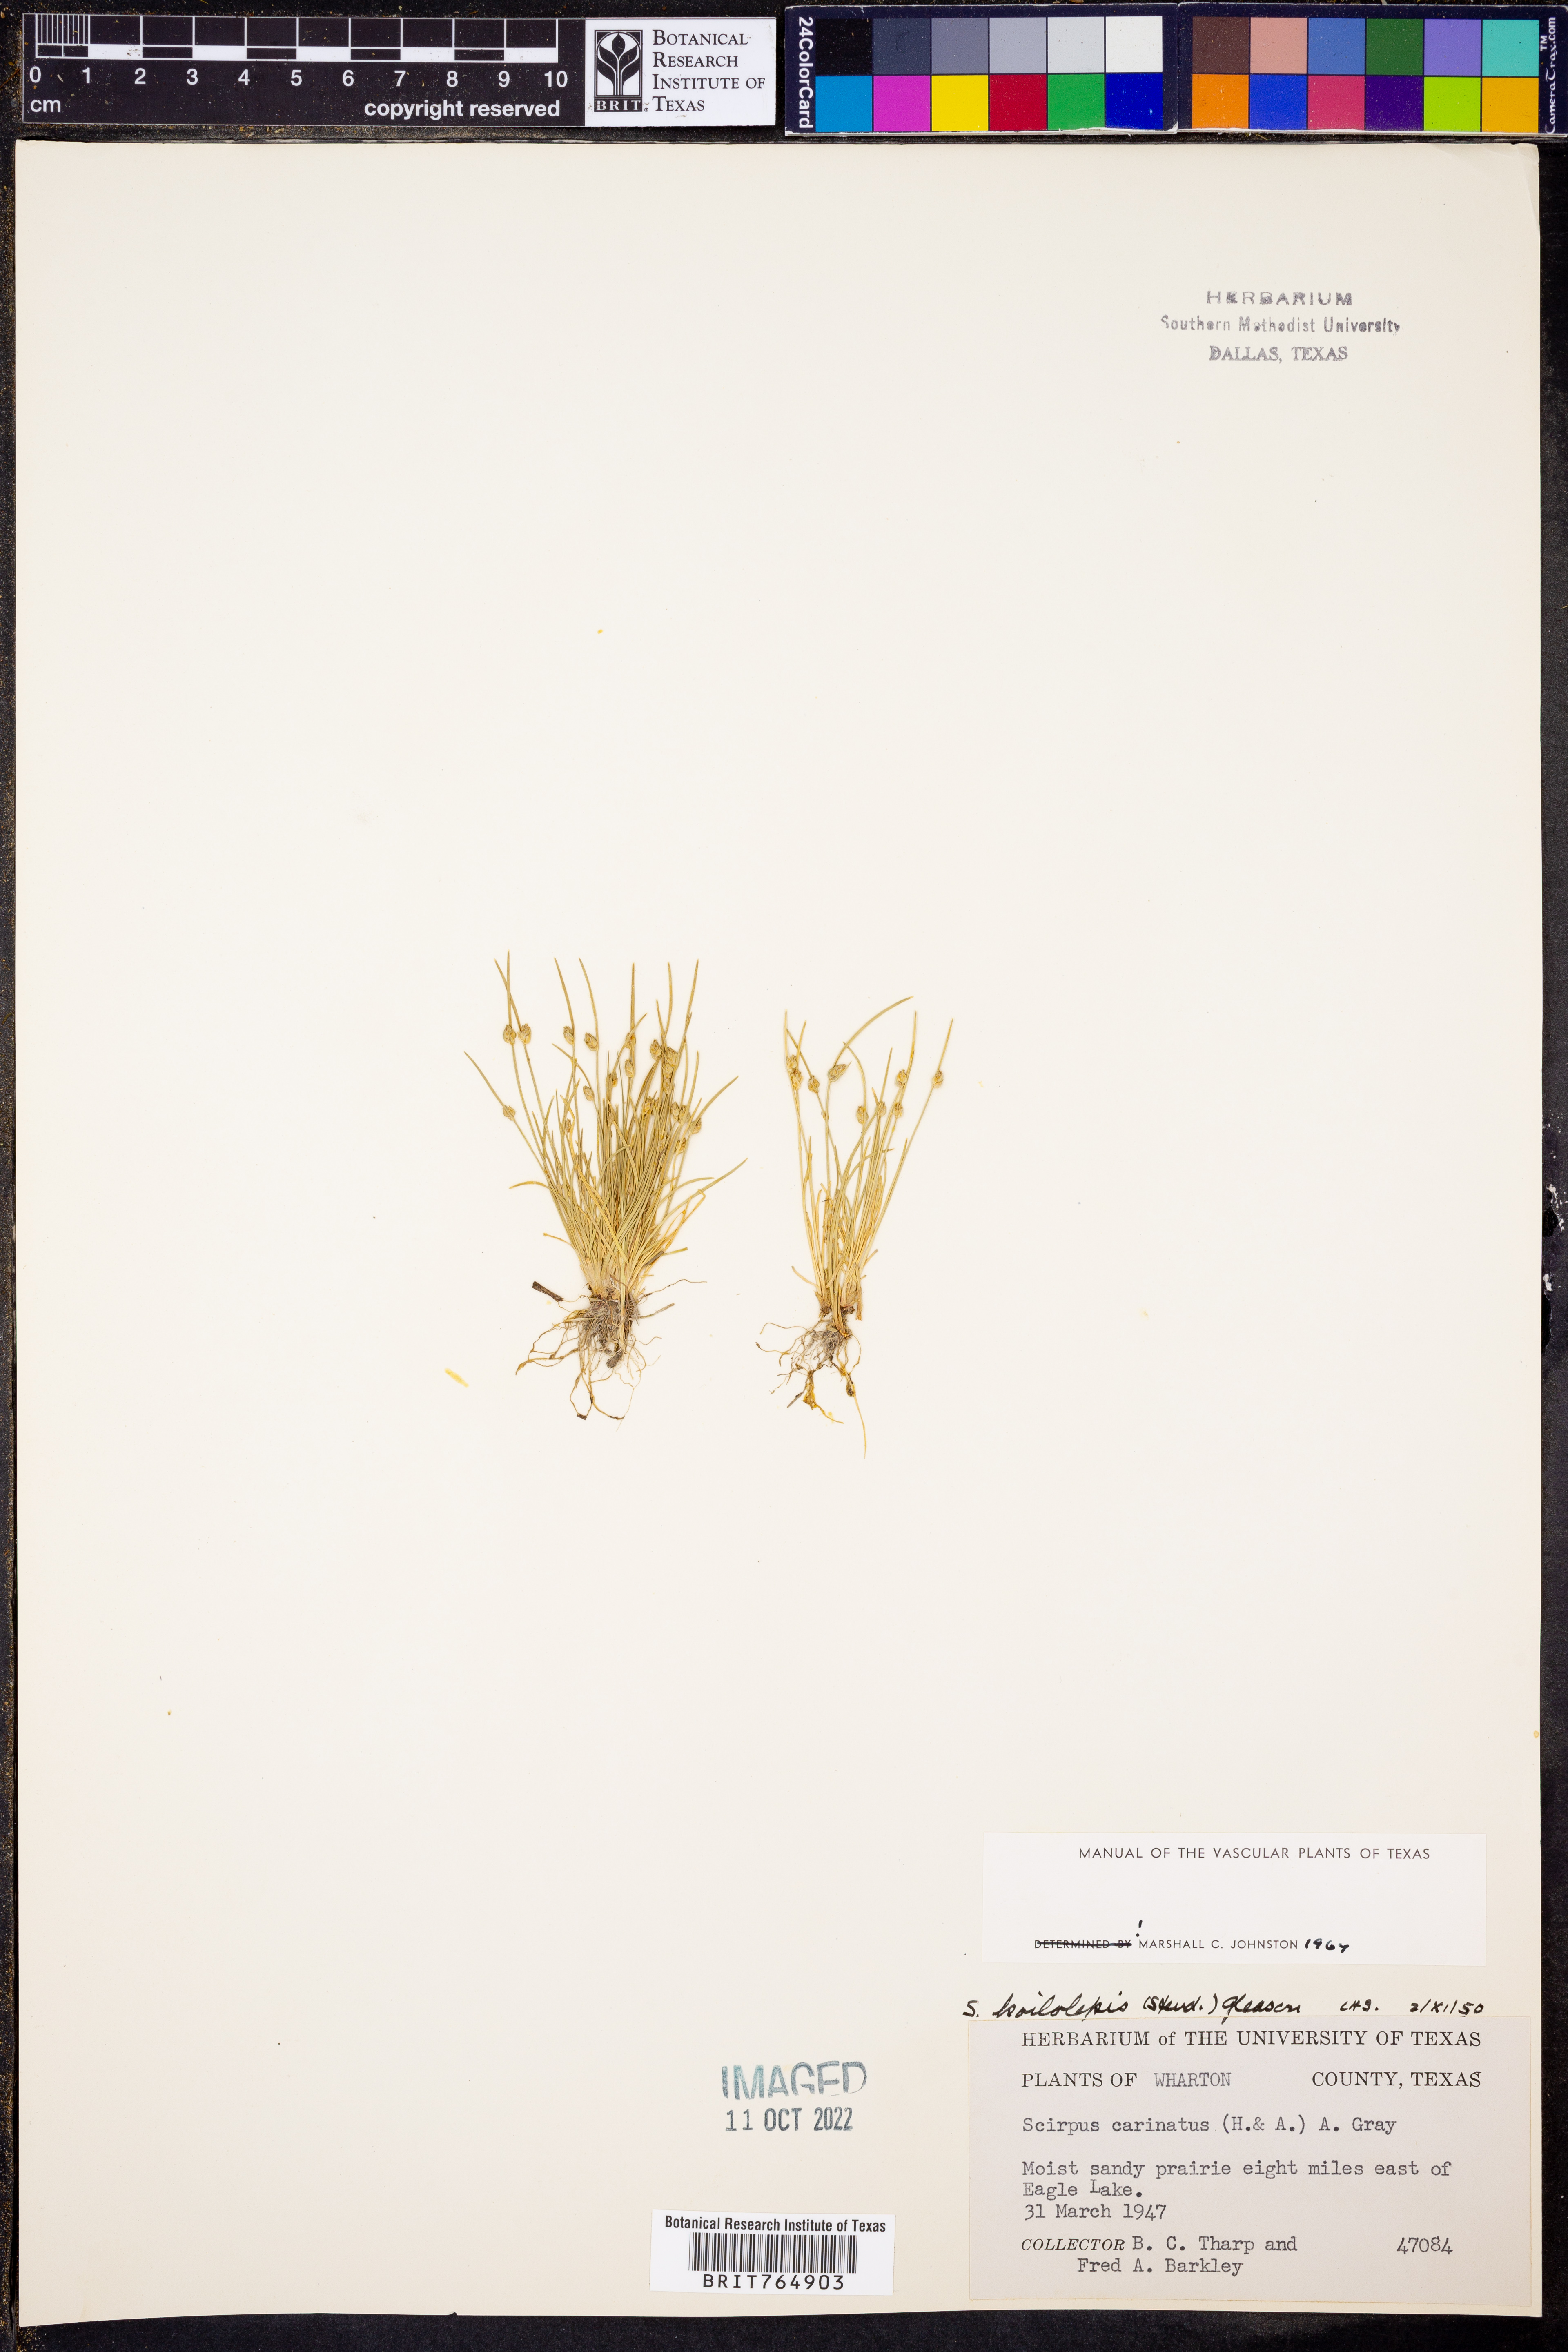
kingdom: Plantae
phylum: Tracheophyta
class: Liliopsida
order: Poales
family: Cyperaceae
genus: Isolepis
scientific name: Isolepis carinata
